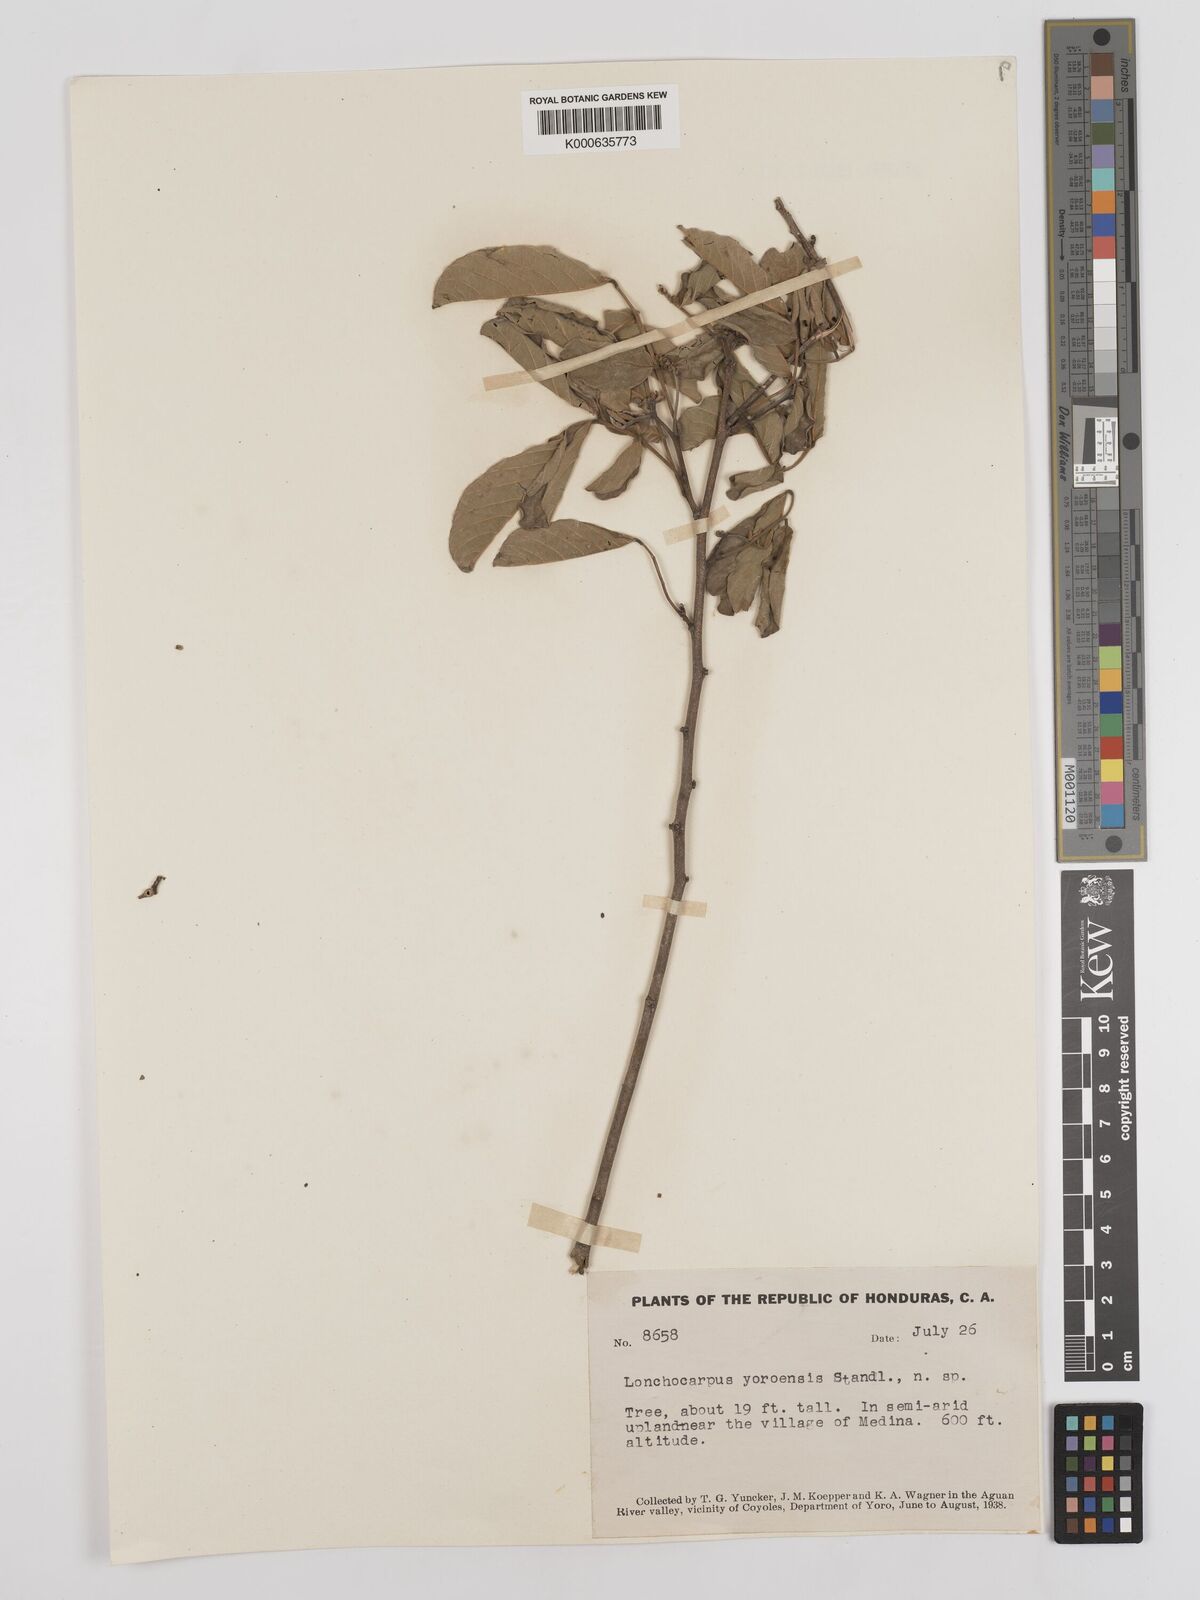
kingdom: Plantae
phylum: Tracheophyta
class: Magnoliopsida
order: Fabales
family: Fabaceae
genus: Lonchocarpus
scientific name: Lonchocarpus yoroensis
